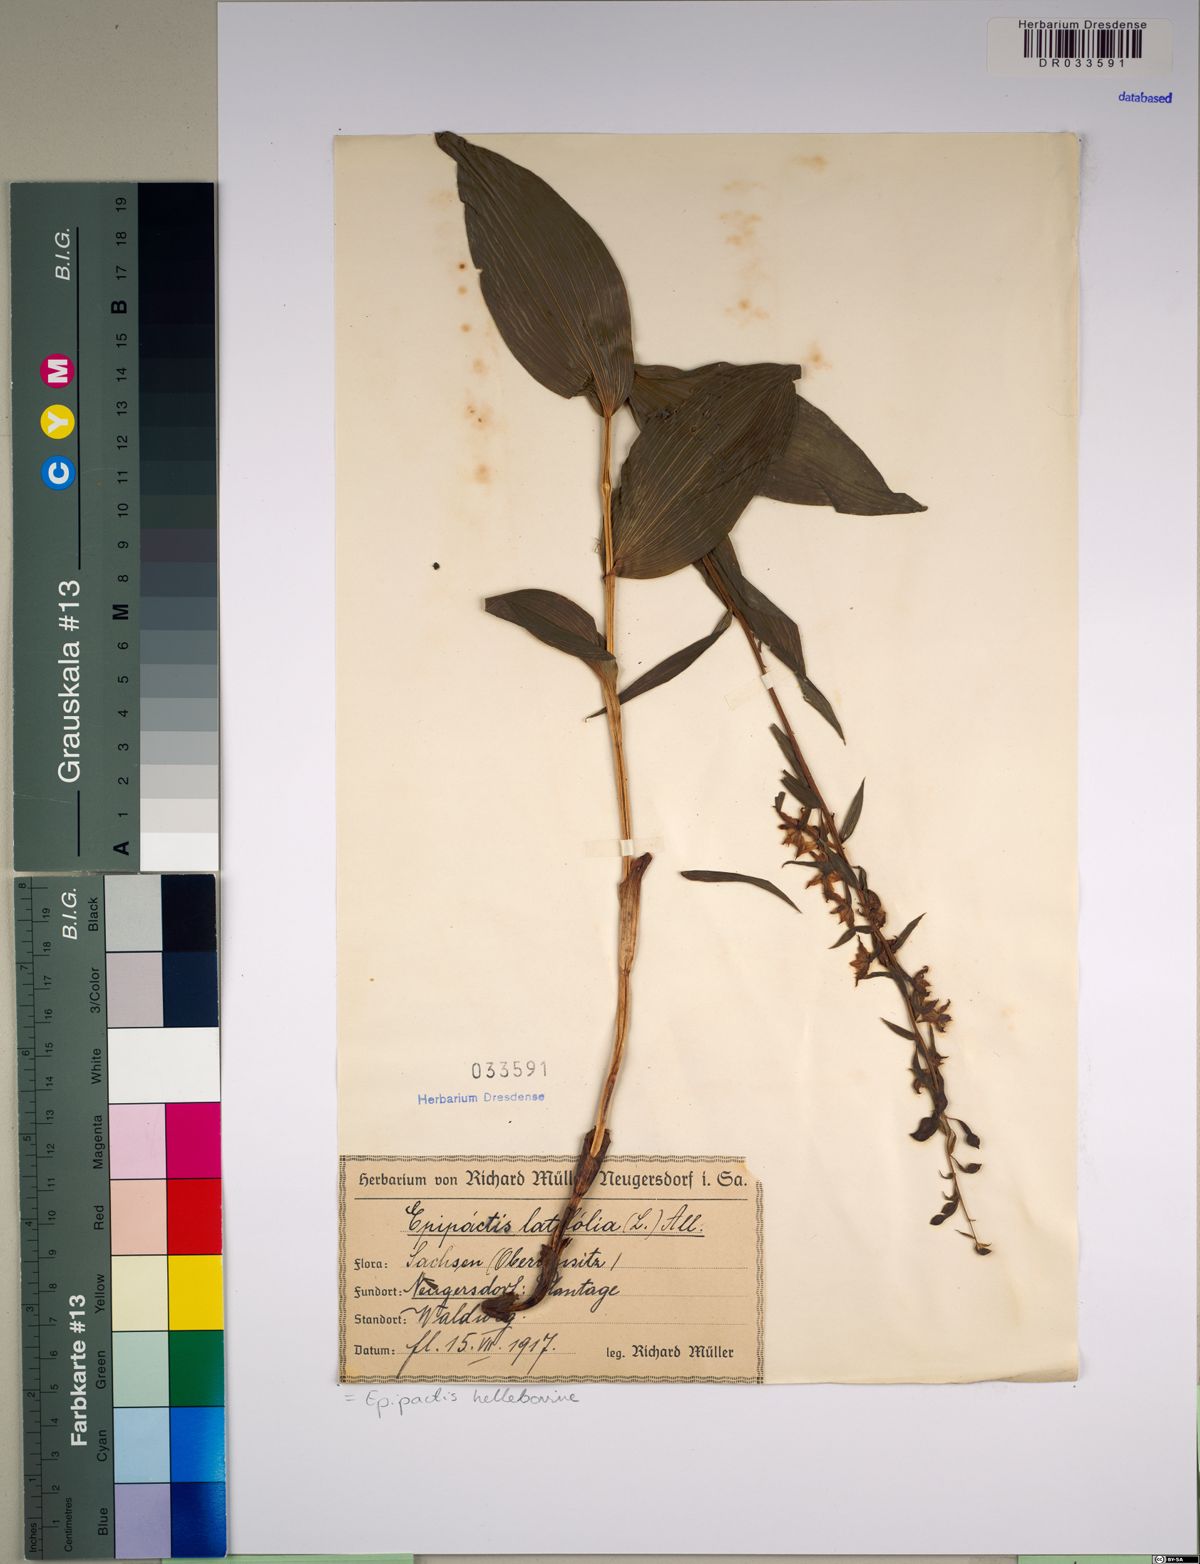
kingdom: Plantae
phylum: Tracheophyta
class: Liliopsida
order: Asparagales
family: Orchidaceae
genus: Epipactis
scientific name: Epipactis helleborine
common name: Broad-leaved helleborine
